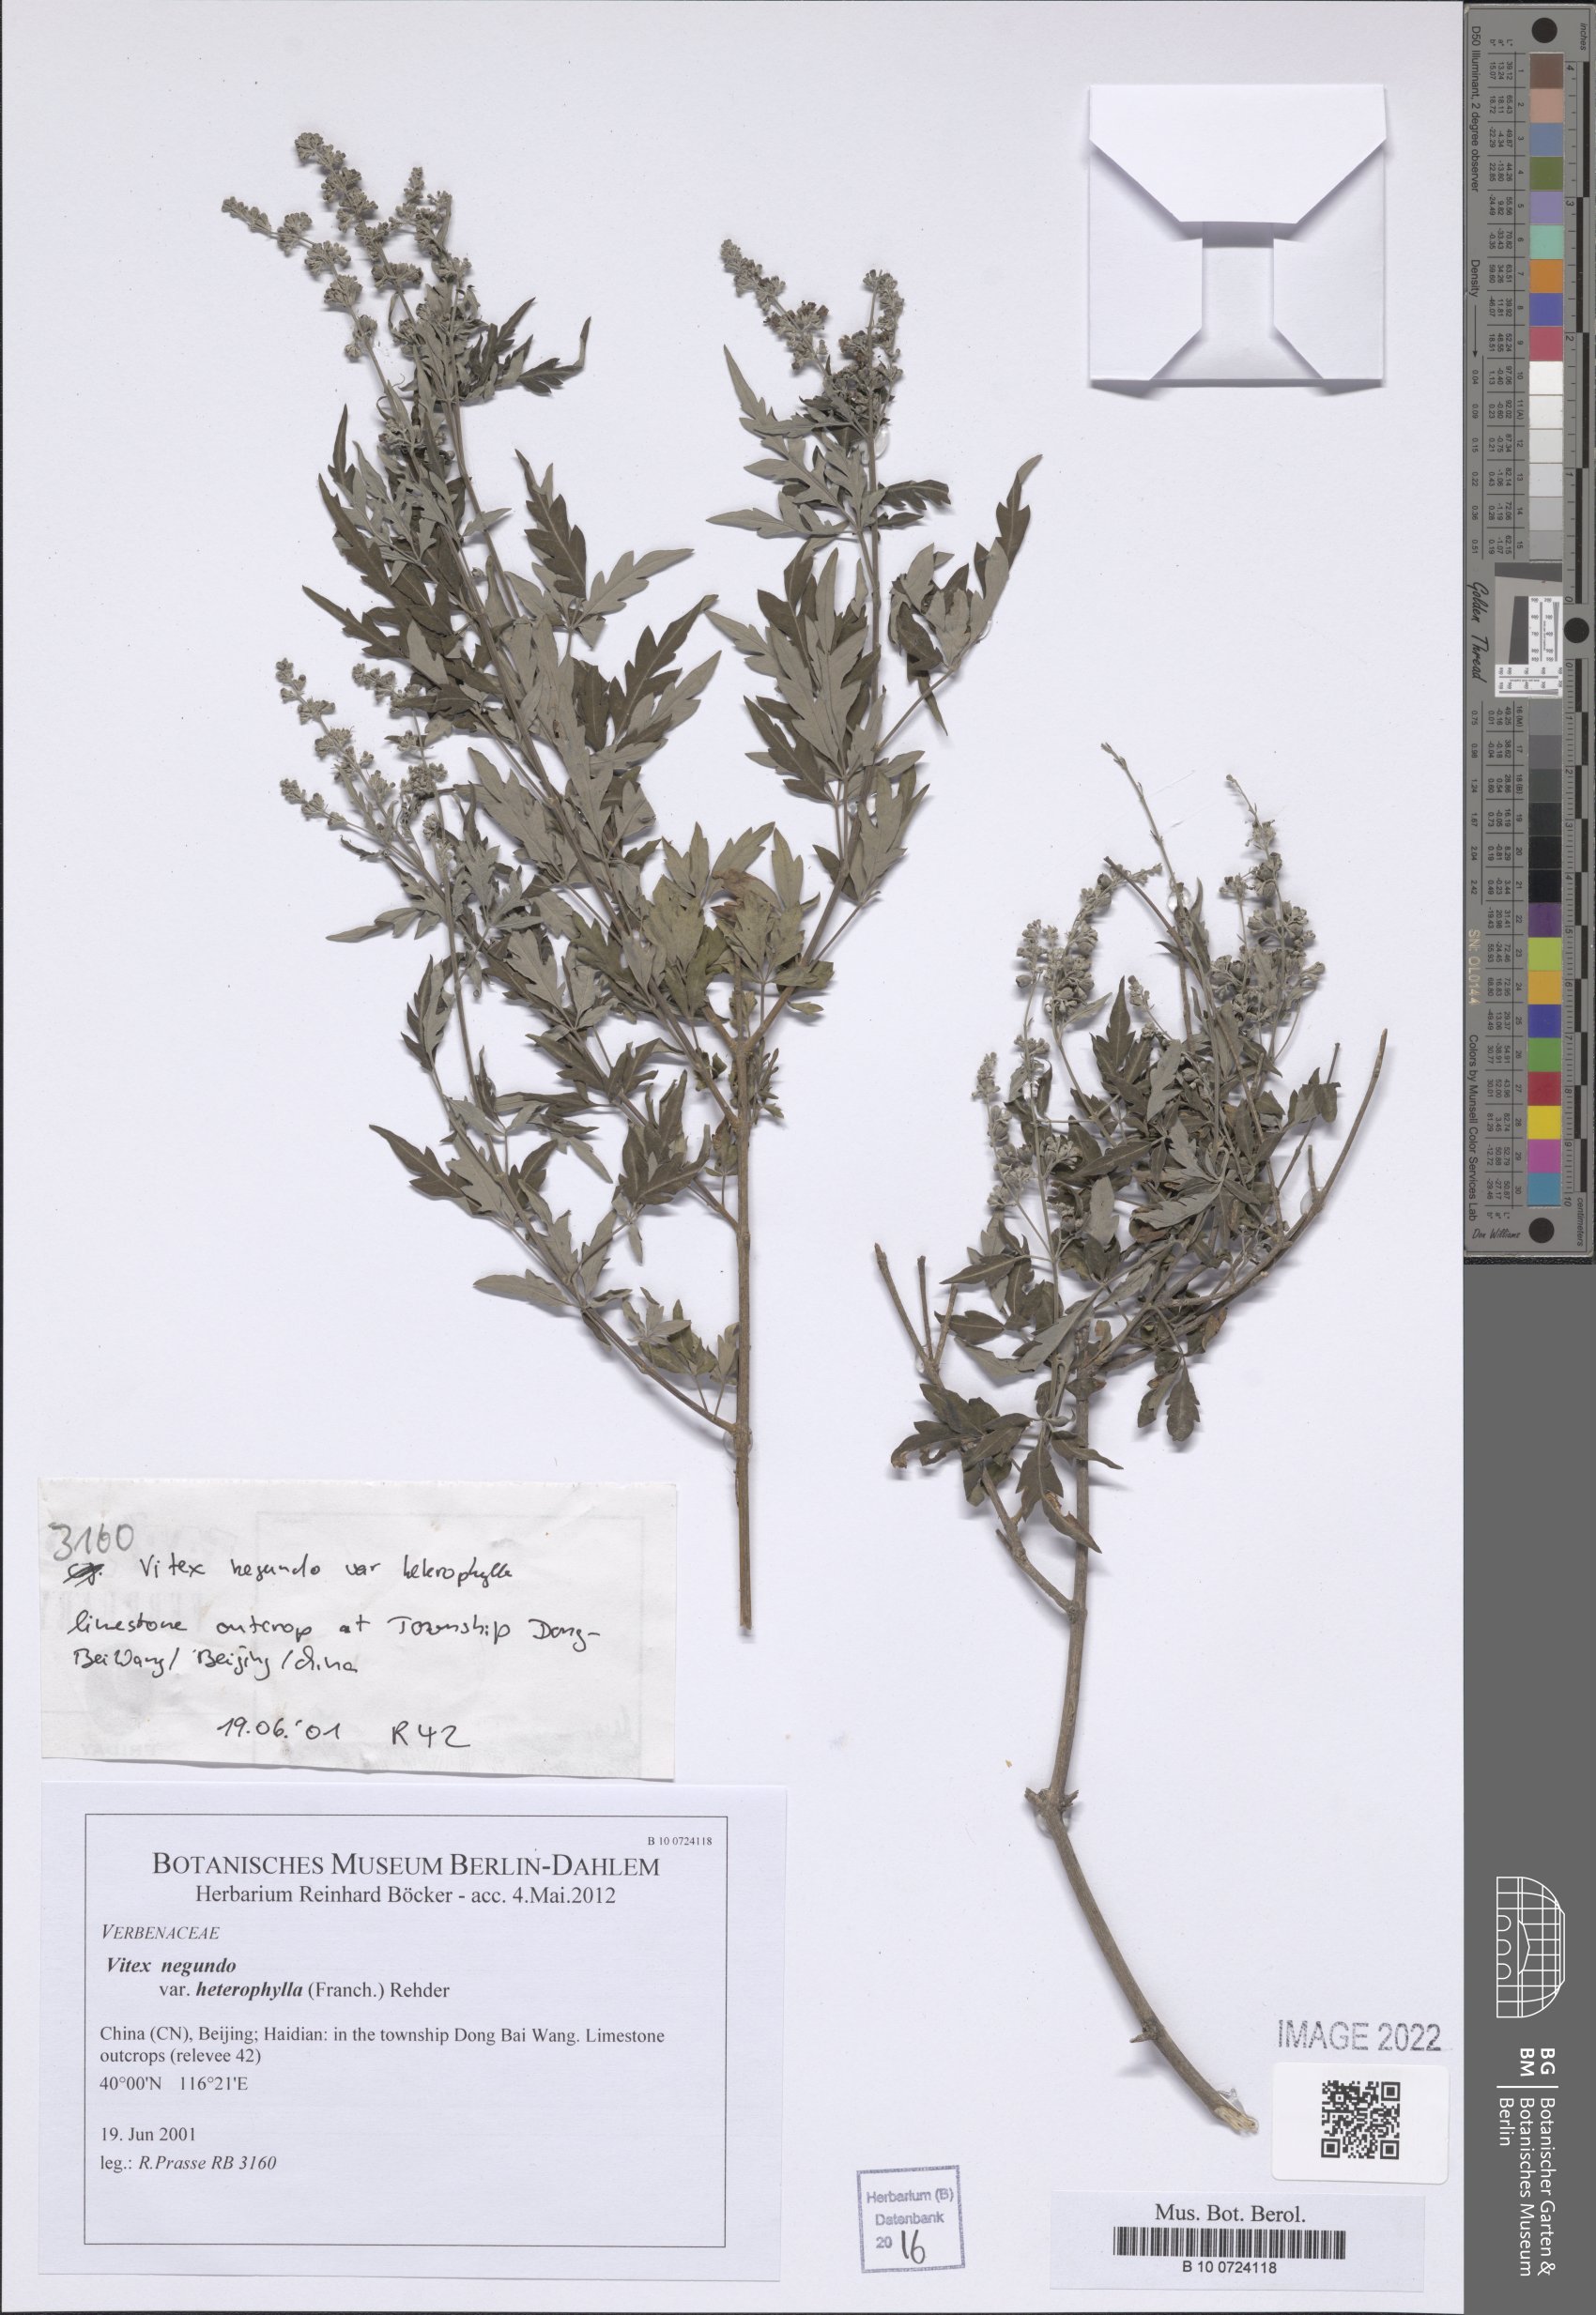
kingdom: Plantae
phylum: Tracheophyta
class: Magnoliopsida
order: Lamiales
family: Lamiaceae
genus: Vitex
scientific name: Vitex negundo
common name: Chinese chastetree
